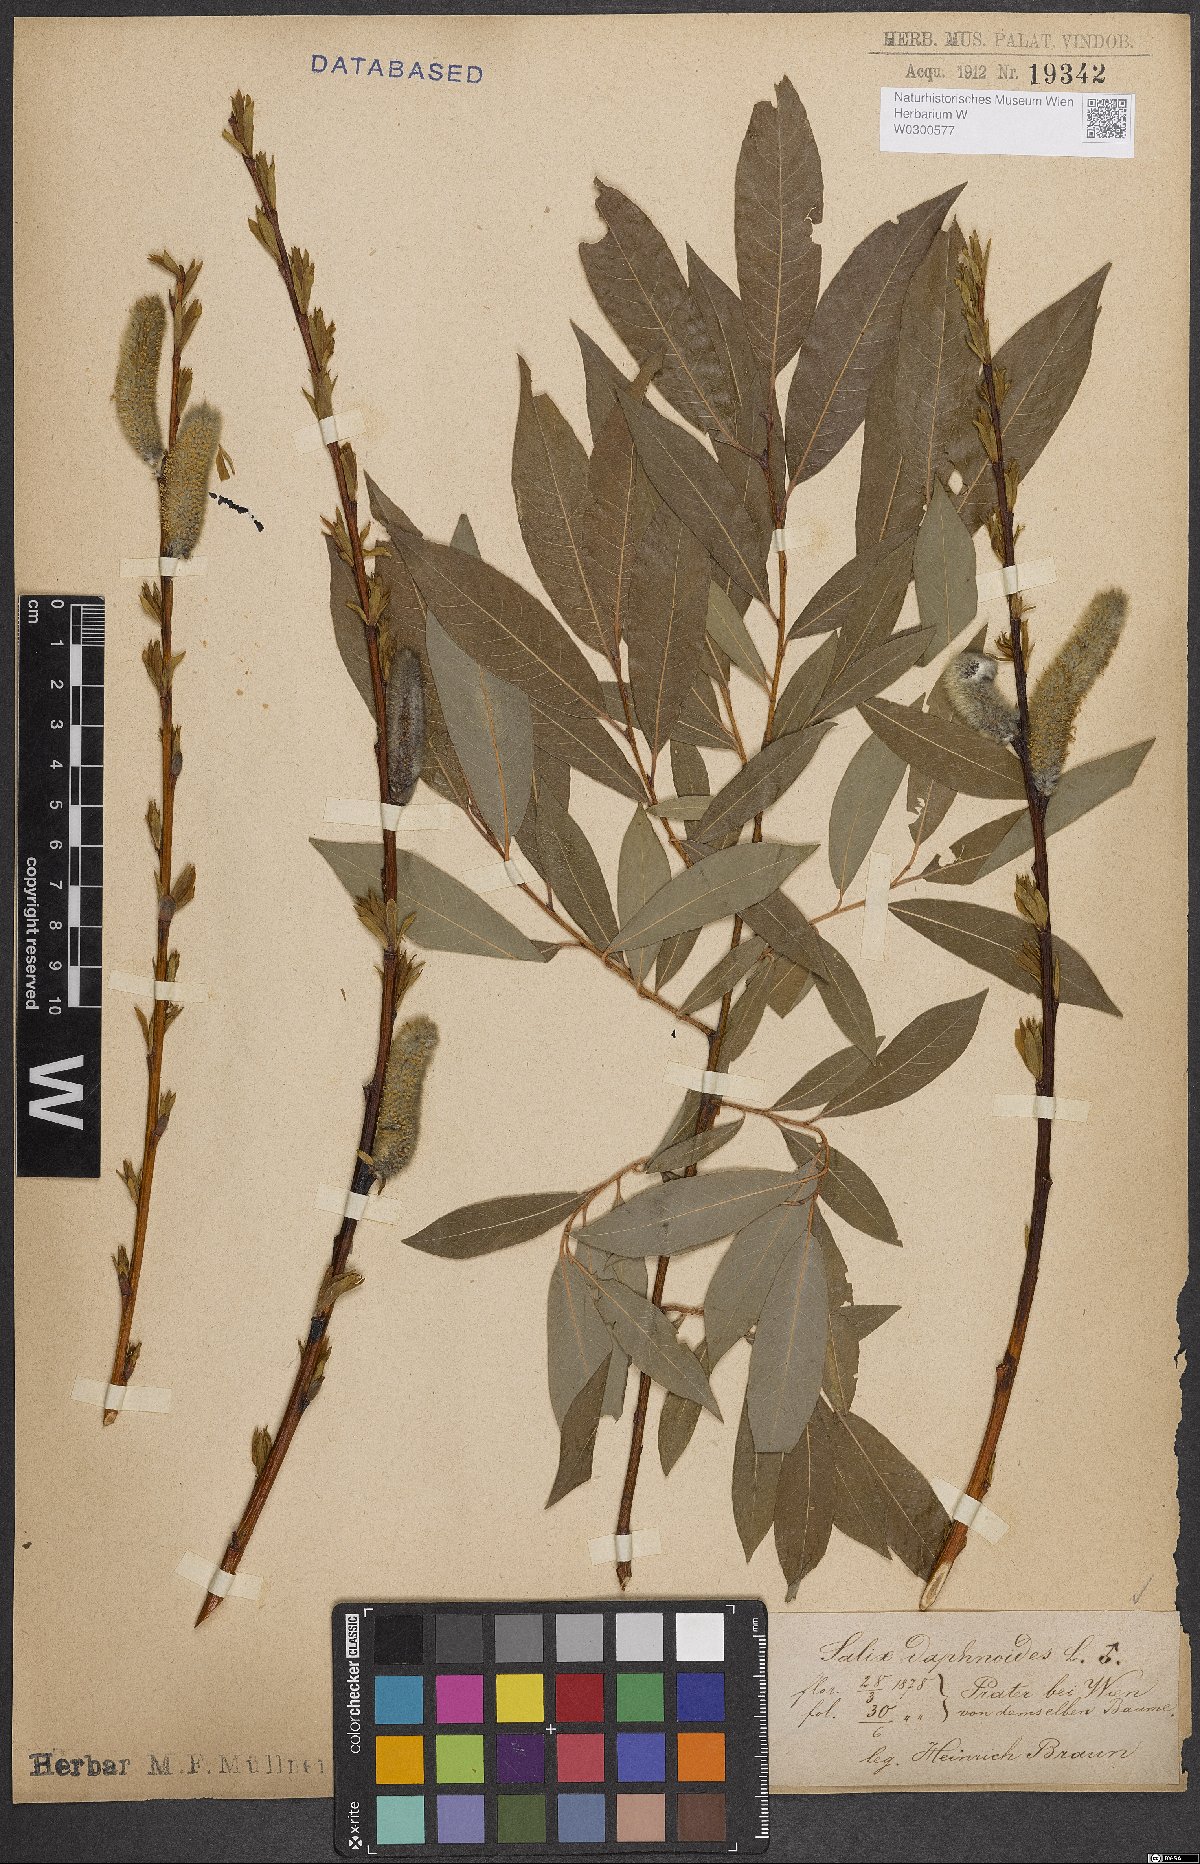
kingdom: Plantae
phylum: Tracheophyta
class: Magnoliopsida
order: Malpighiales
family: Salicaceae
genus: Salix
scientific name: Salix daphnoides
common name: European violet-willow
